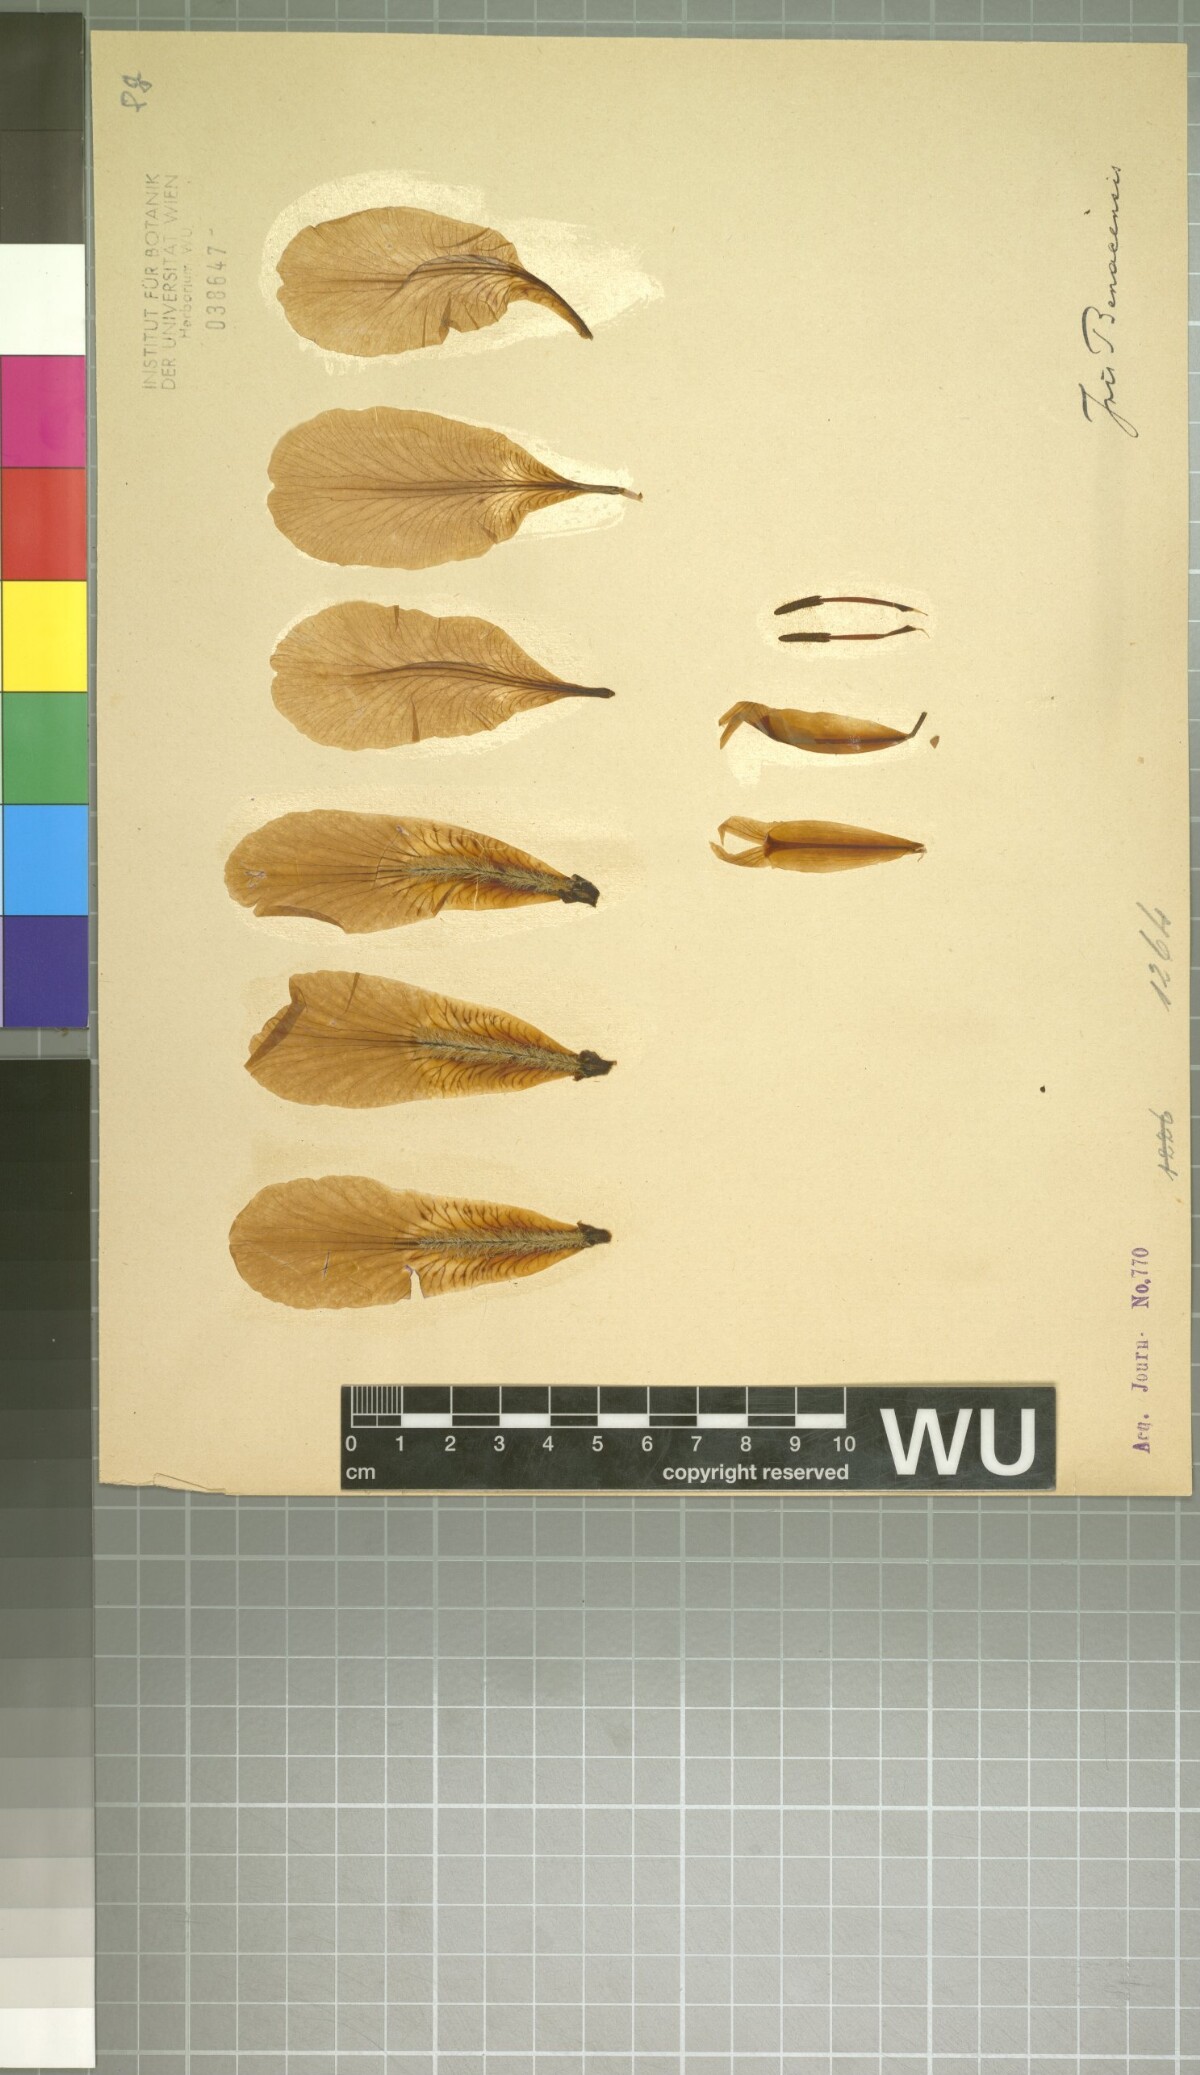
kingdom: Plantae
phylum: Tracheophyta
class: Liliopsida
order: Asparagales
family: Iridaceae
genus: Iris
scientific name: Iris benacensis
